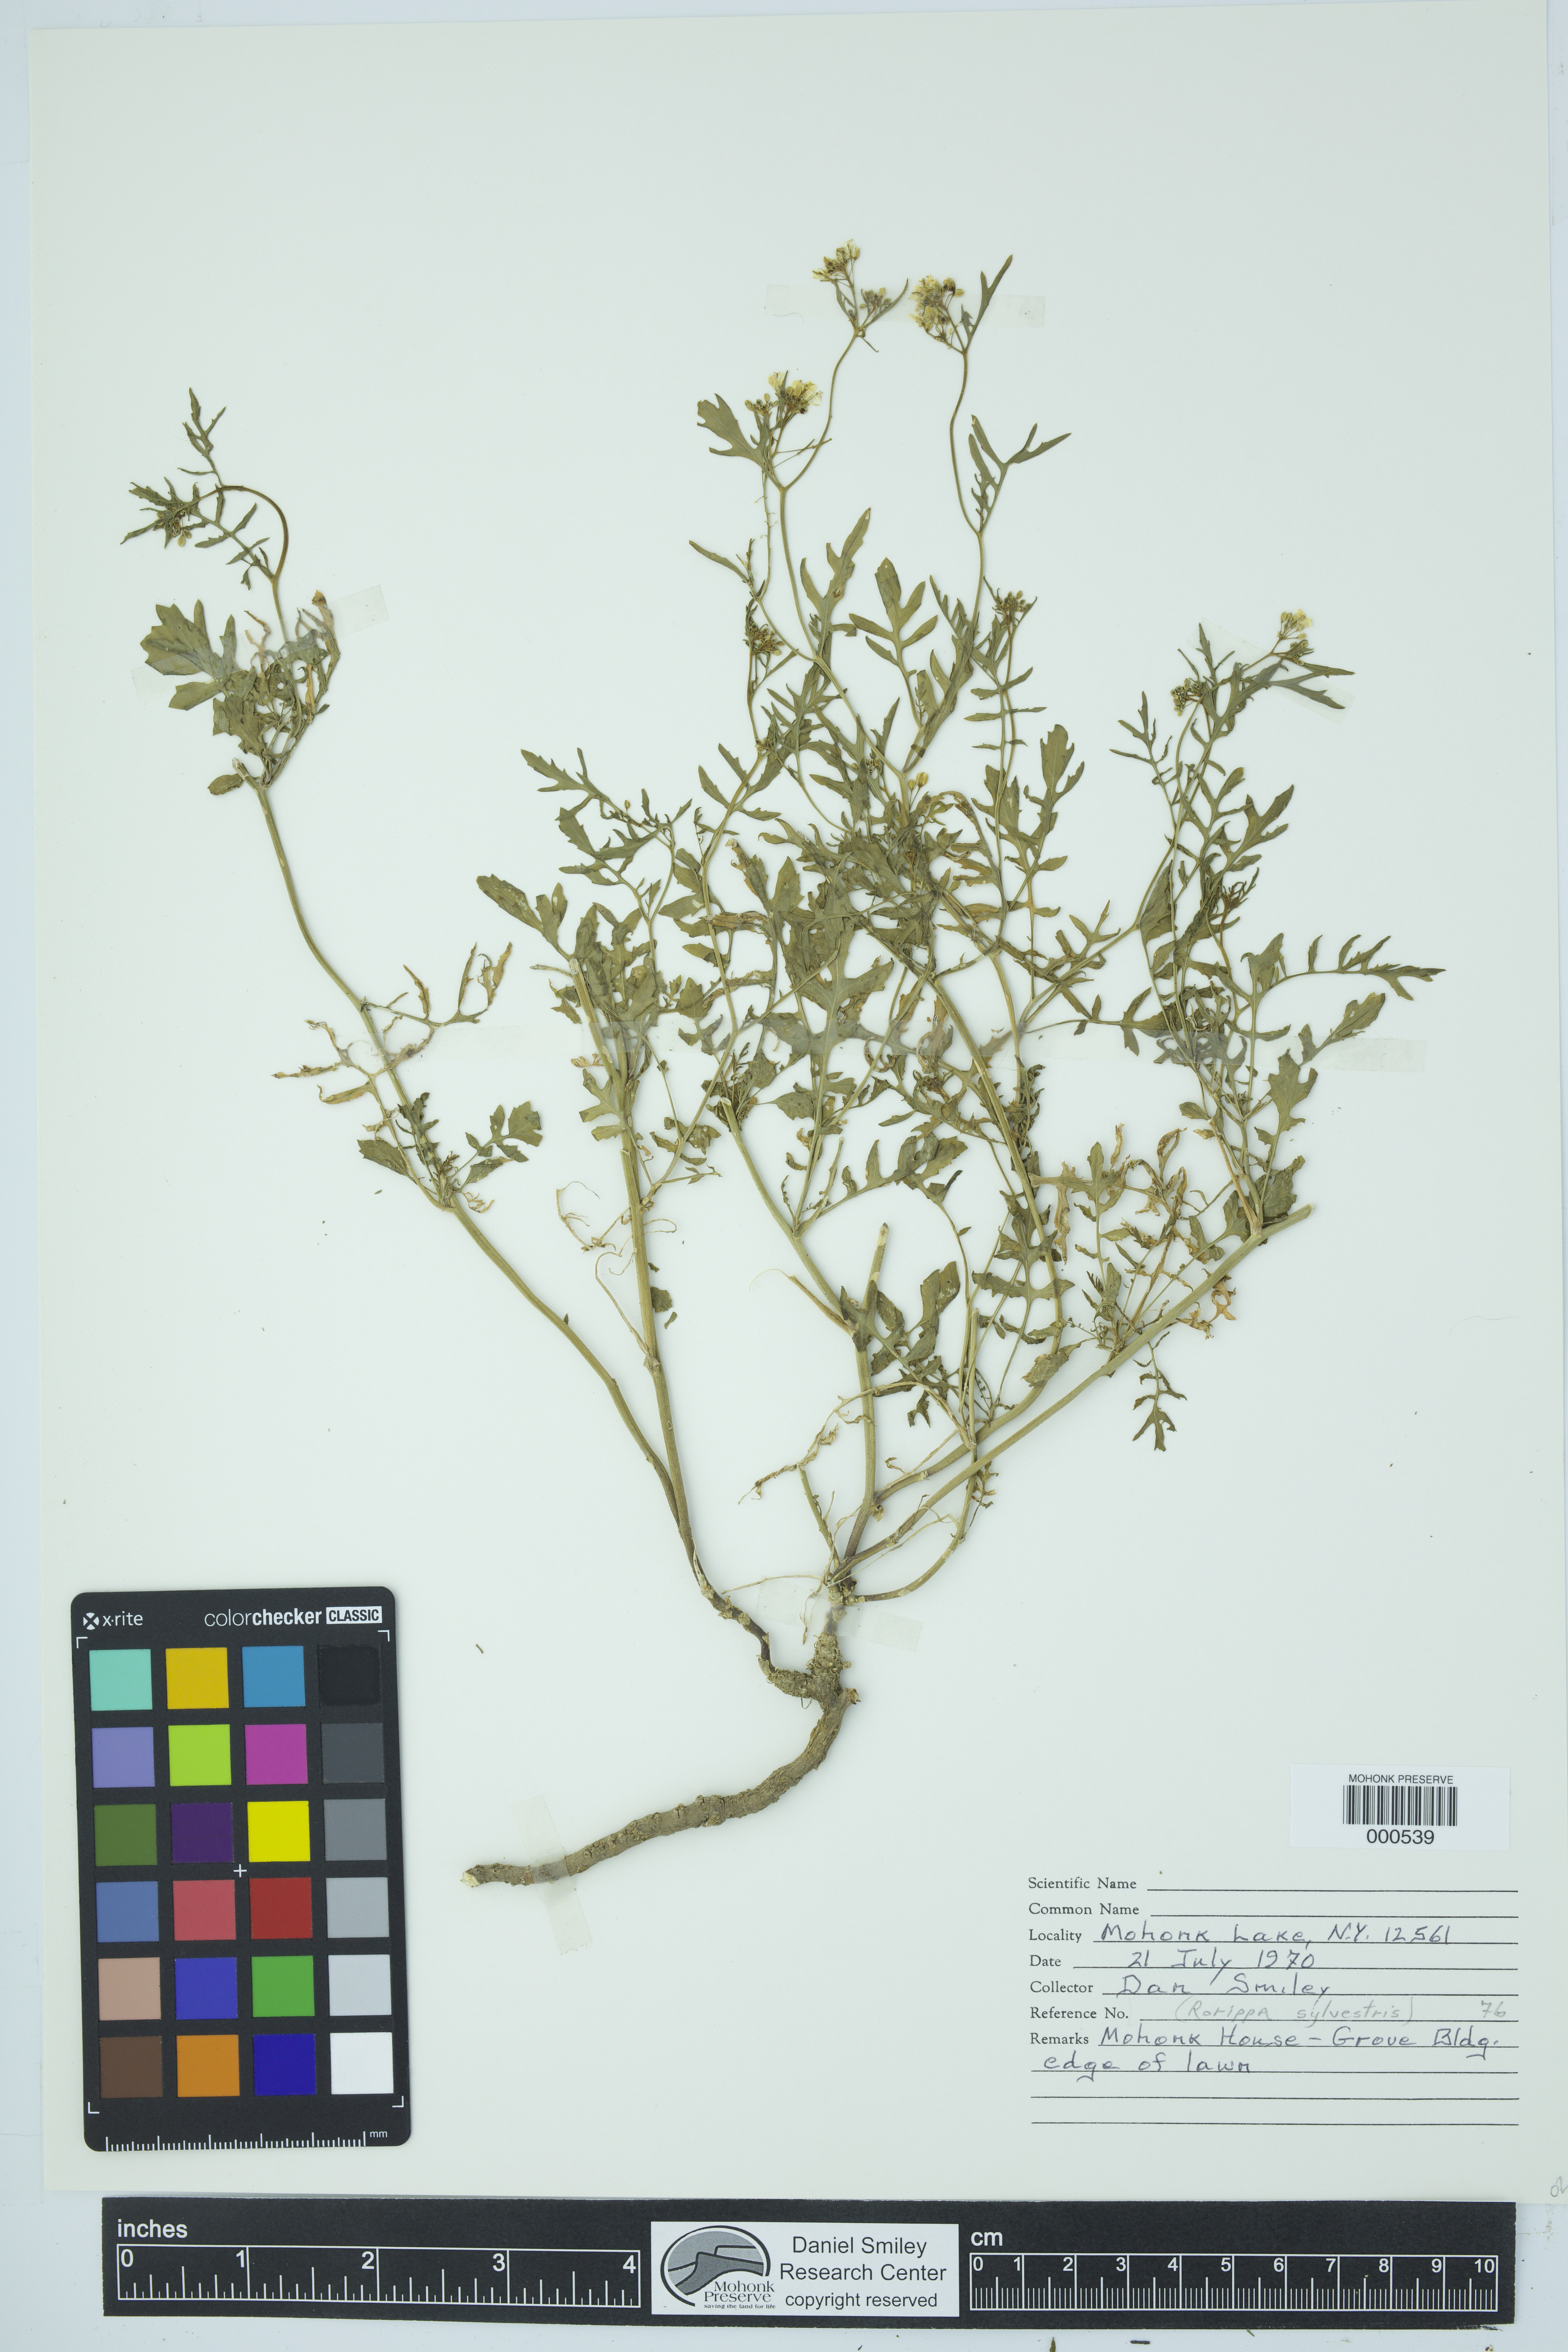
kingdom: Plantae
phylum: Tracheophyta
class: Magnoliopsida
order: Brassicales
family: Brassicaceae
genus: Rorippa
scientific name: Rorippa sylvestris
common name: Creeping yellowcress
